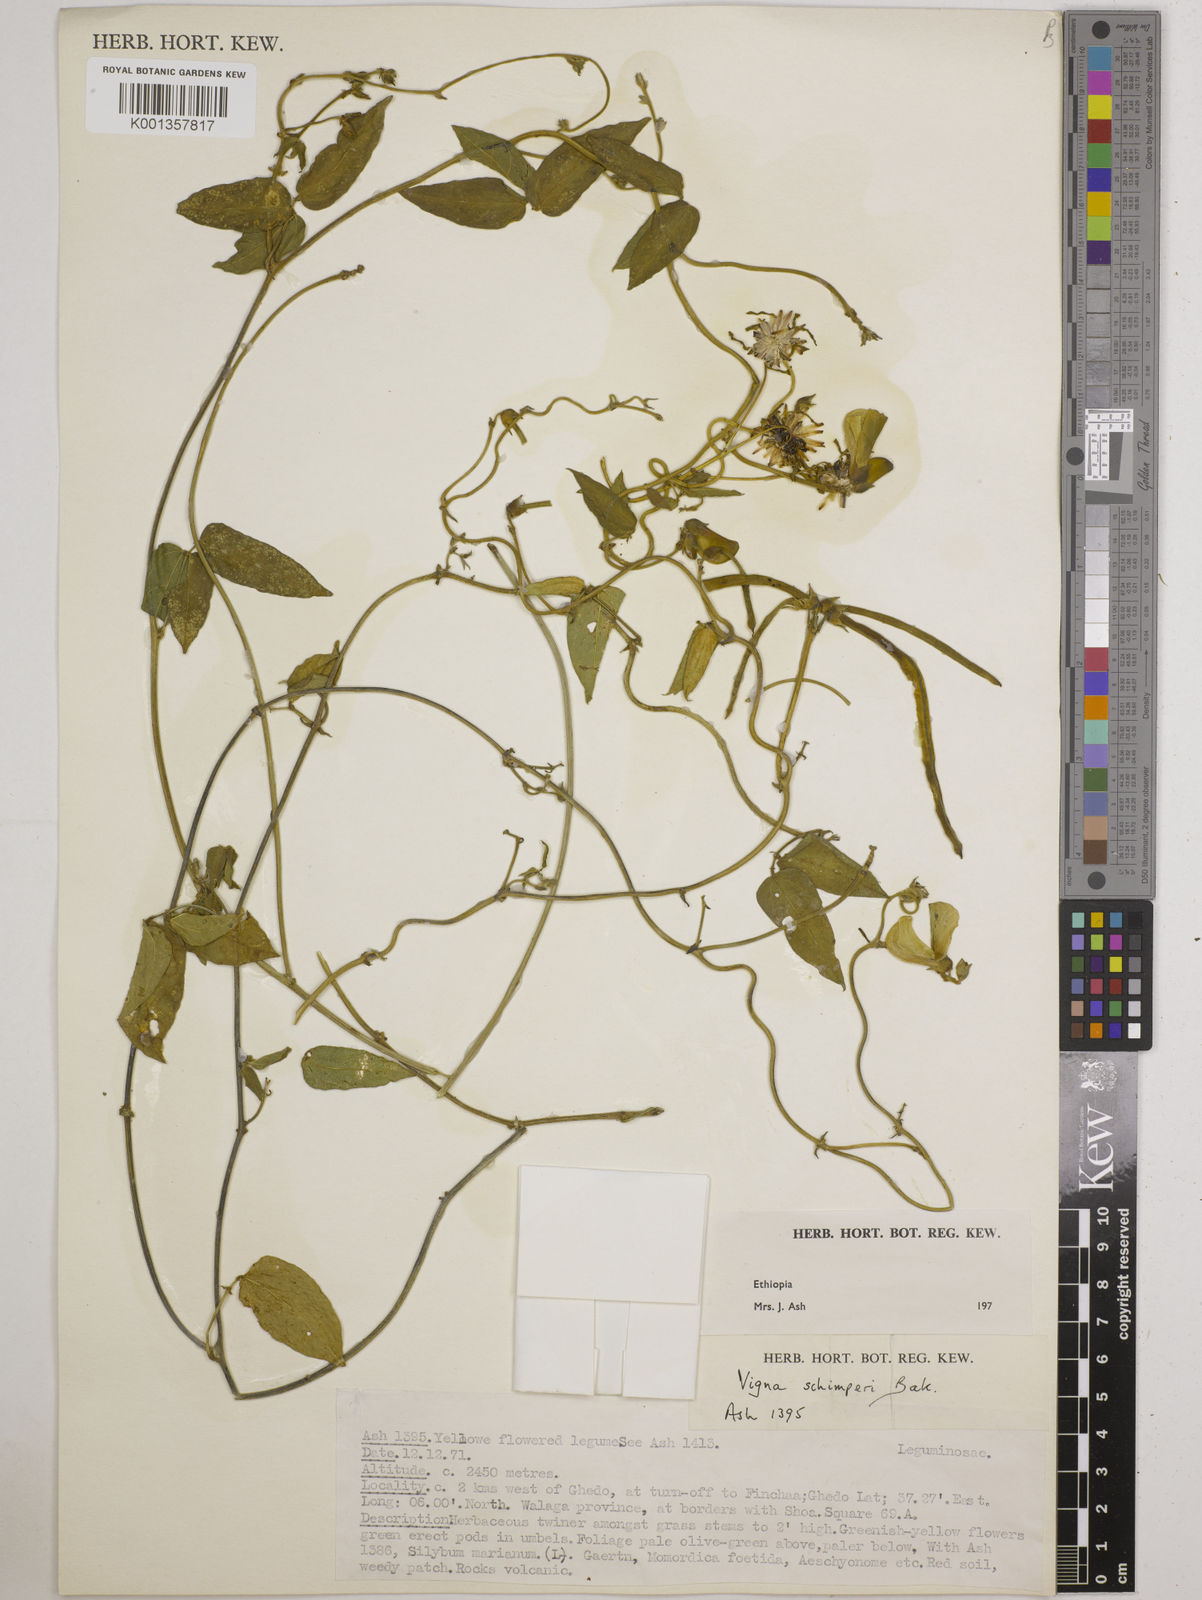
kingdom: Plantae
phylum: Tracheophyta
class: Magnoliopsida
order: Fabales
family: Fabaceae
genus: Vigna
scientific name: Vigna schimperi
